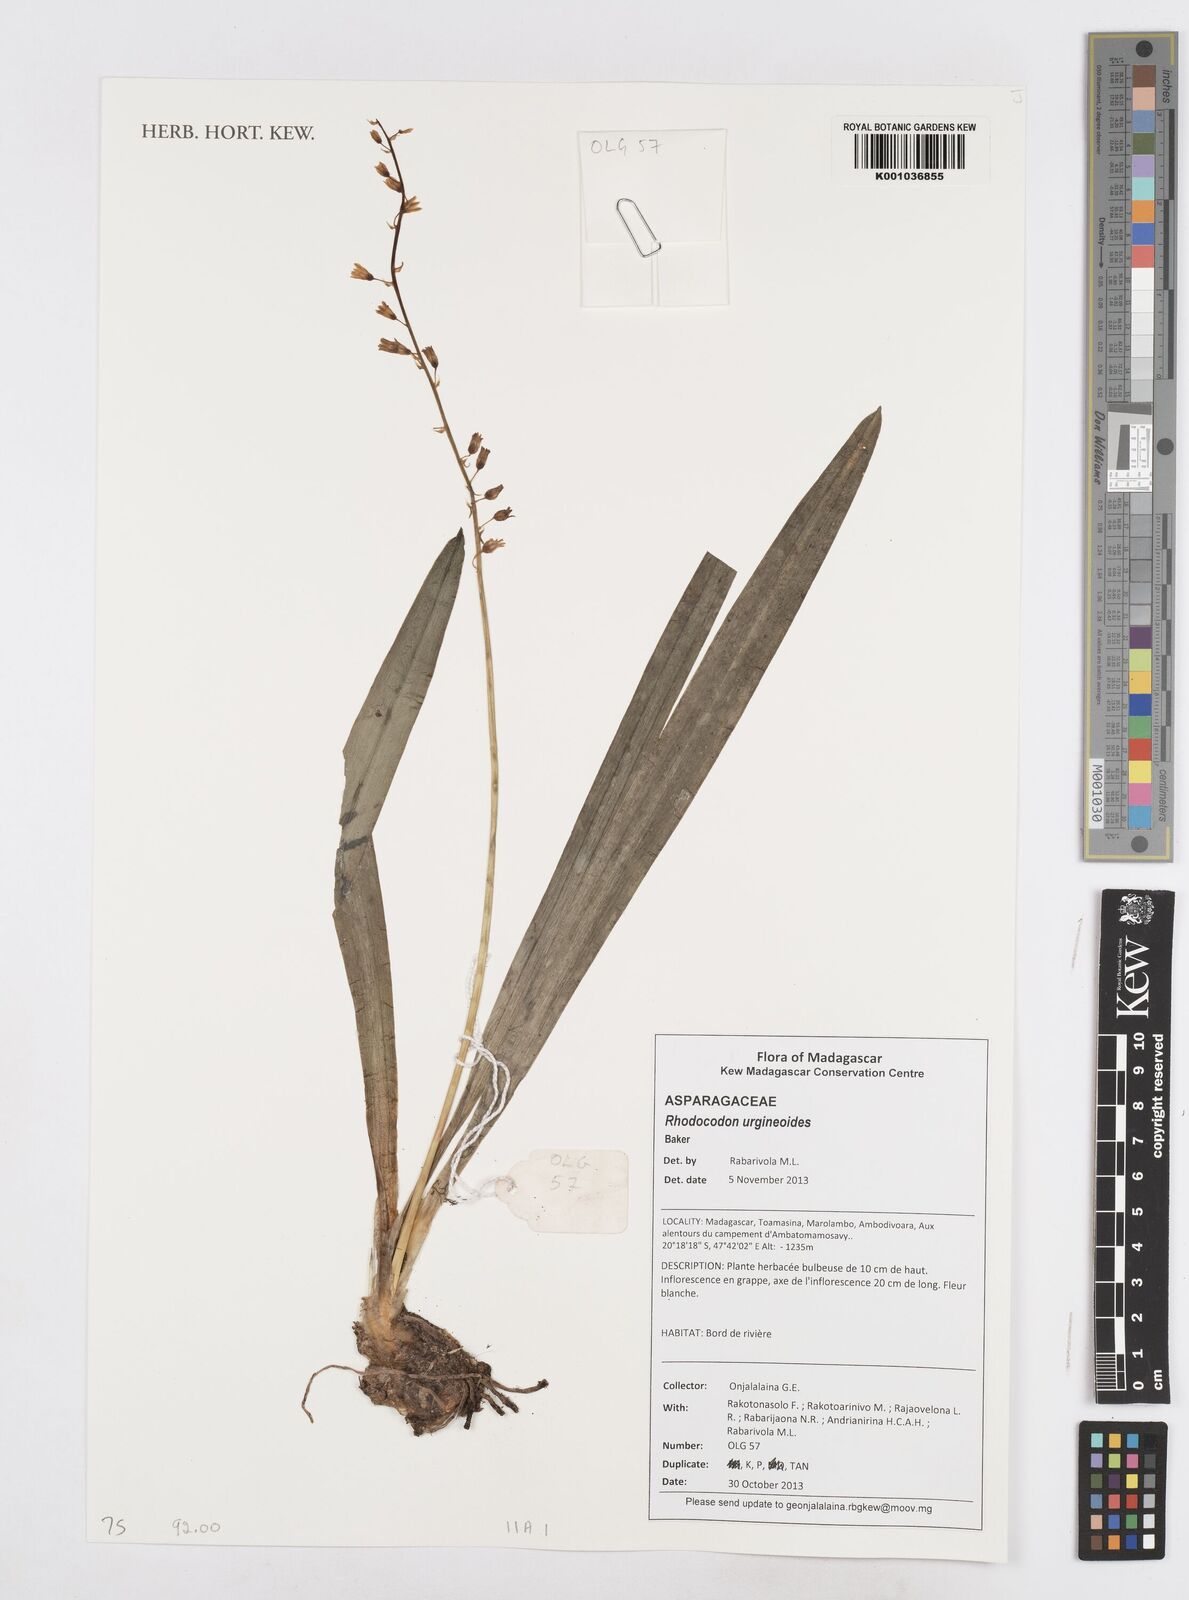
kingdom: Plantae
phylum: Tracheophyta
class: Liliopsida
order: Asparagales
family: Asparagaceae
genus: Drimia
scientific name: Drimia urgineoides
